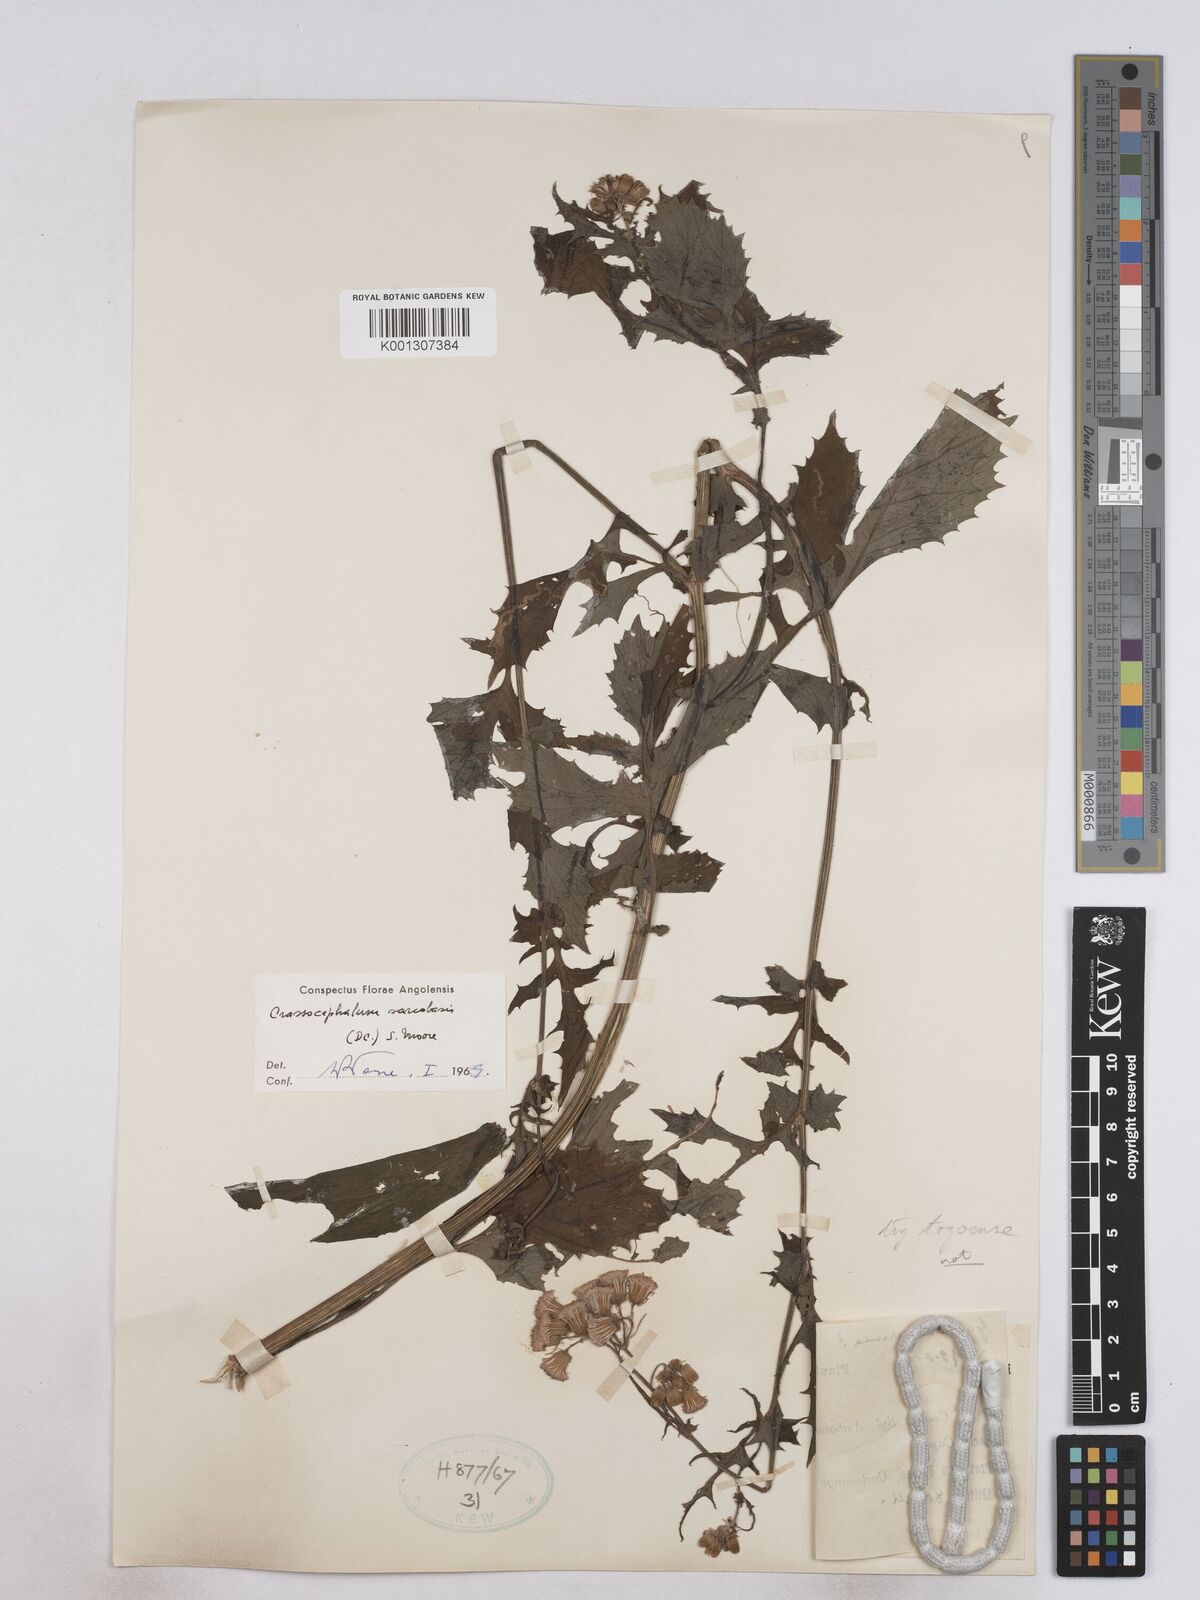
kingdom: Plantae
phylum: Tracheophyta
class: Magnoliopsida
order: Asterales
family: Asteraceae
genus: Crassocephalum
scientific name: Crassocephalum rubens
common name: Yoruban bologi
